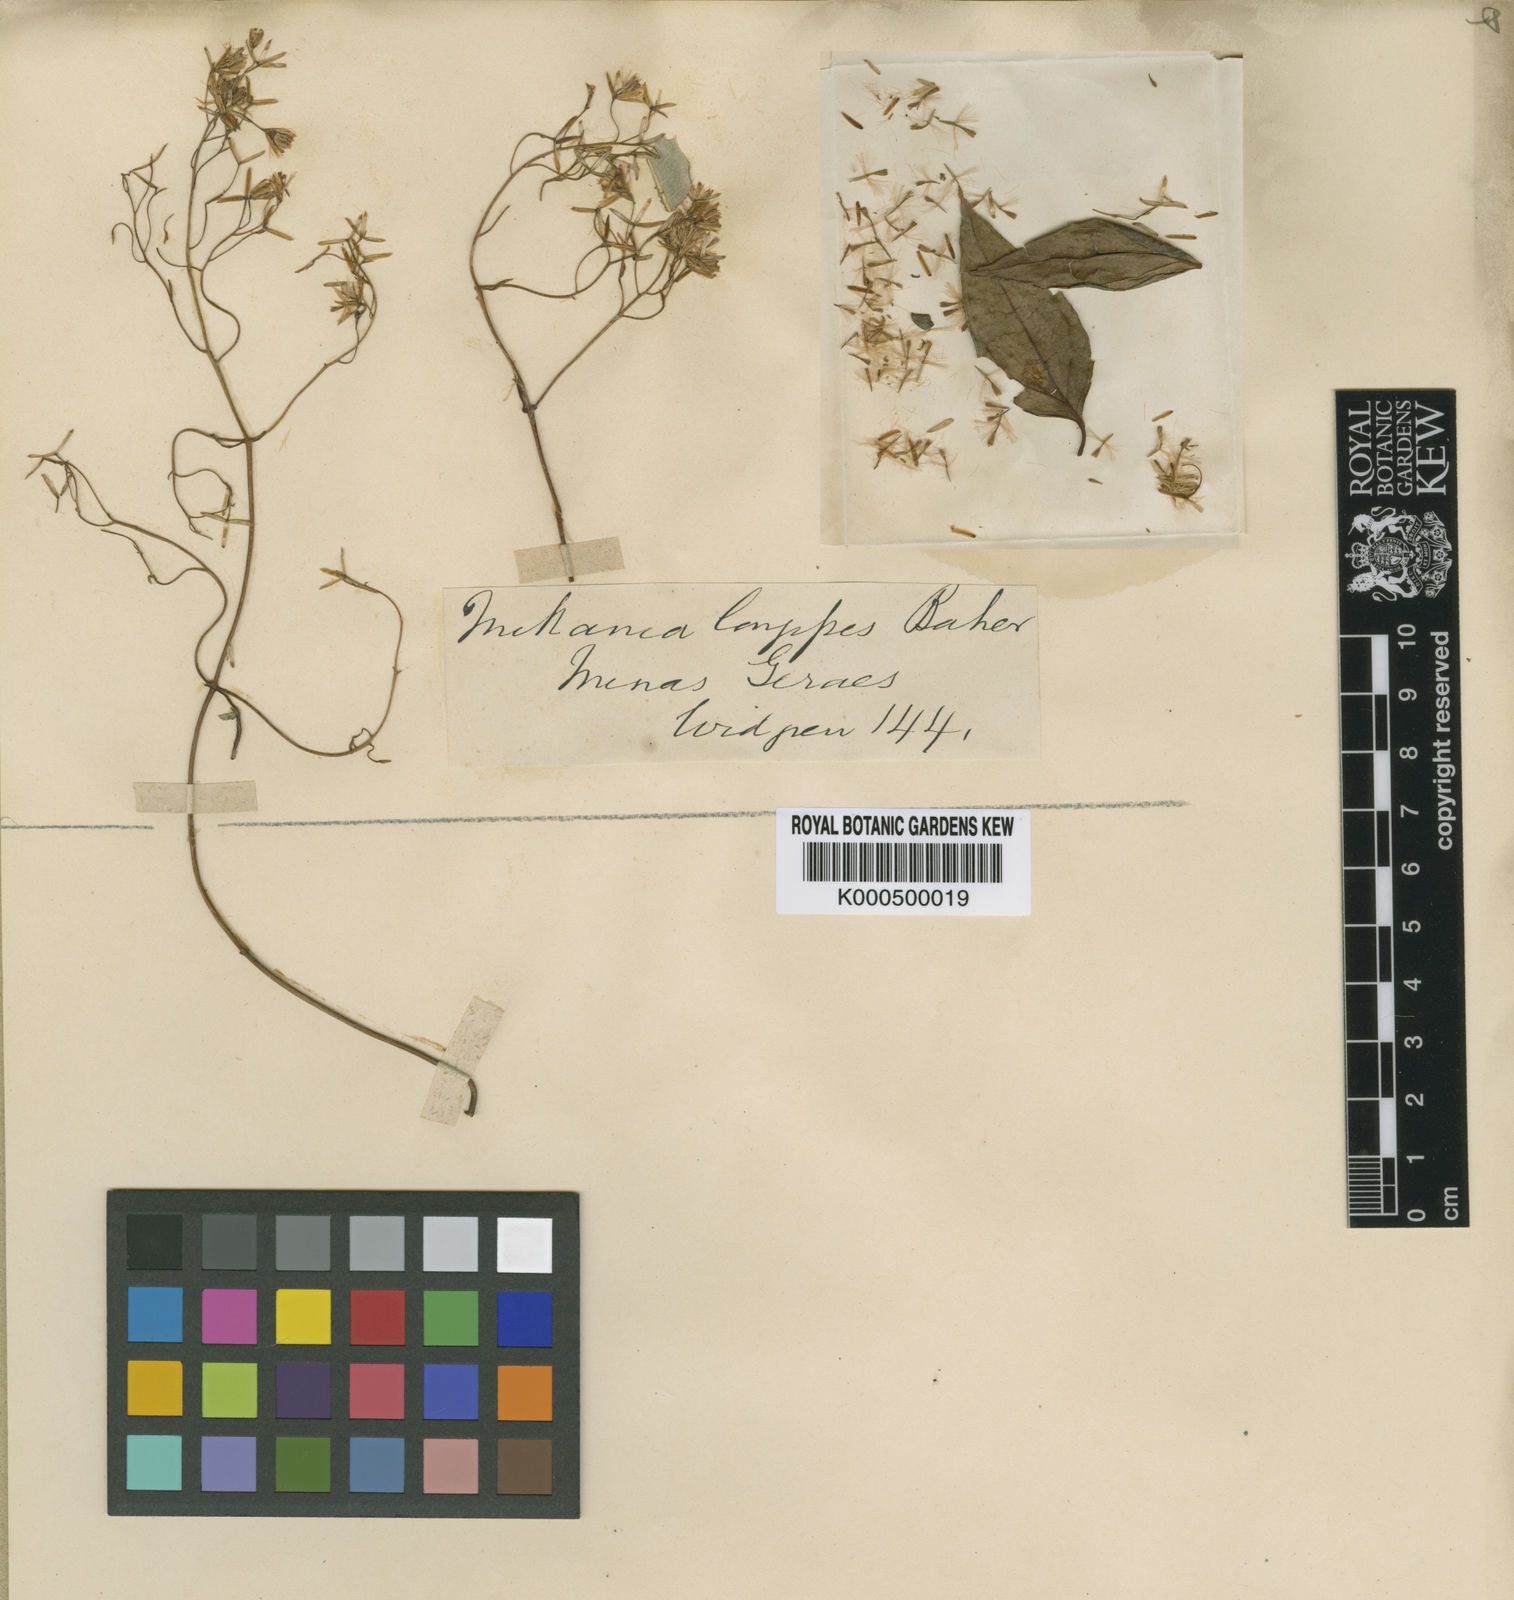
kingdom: Plantae
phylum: Tracheophyta
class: Magnoliopsida
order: Asterales
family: Asteraceae
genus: Mikania
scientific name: Mikania longipes
